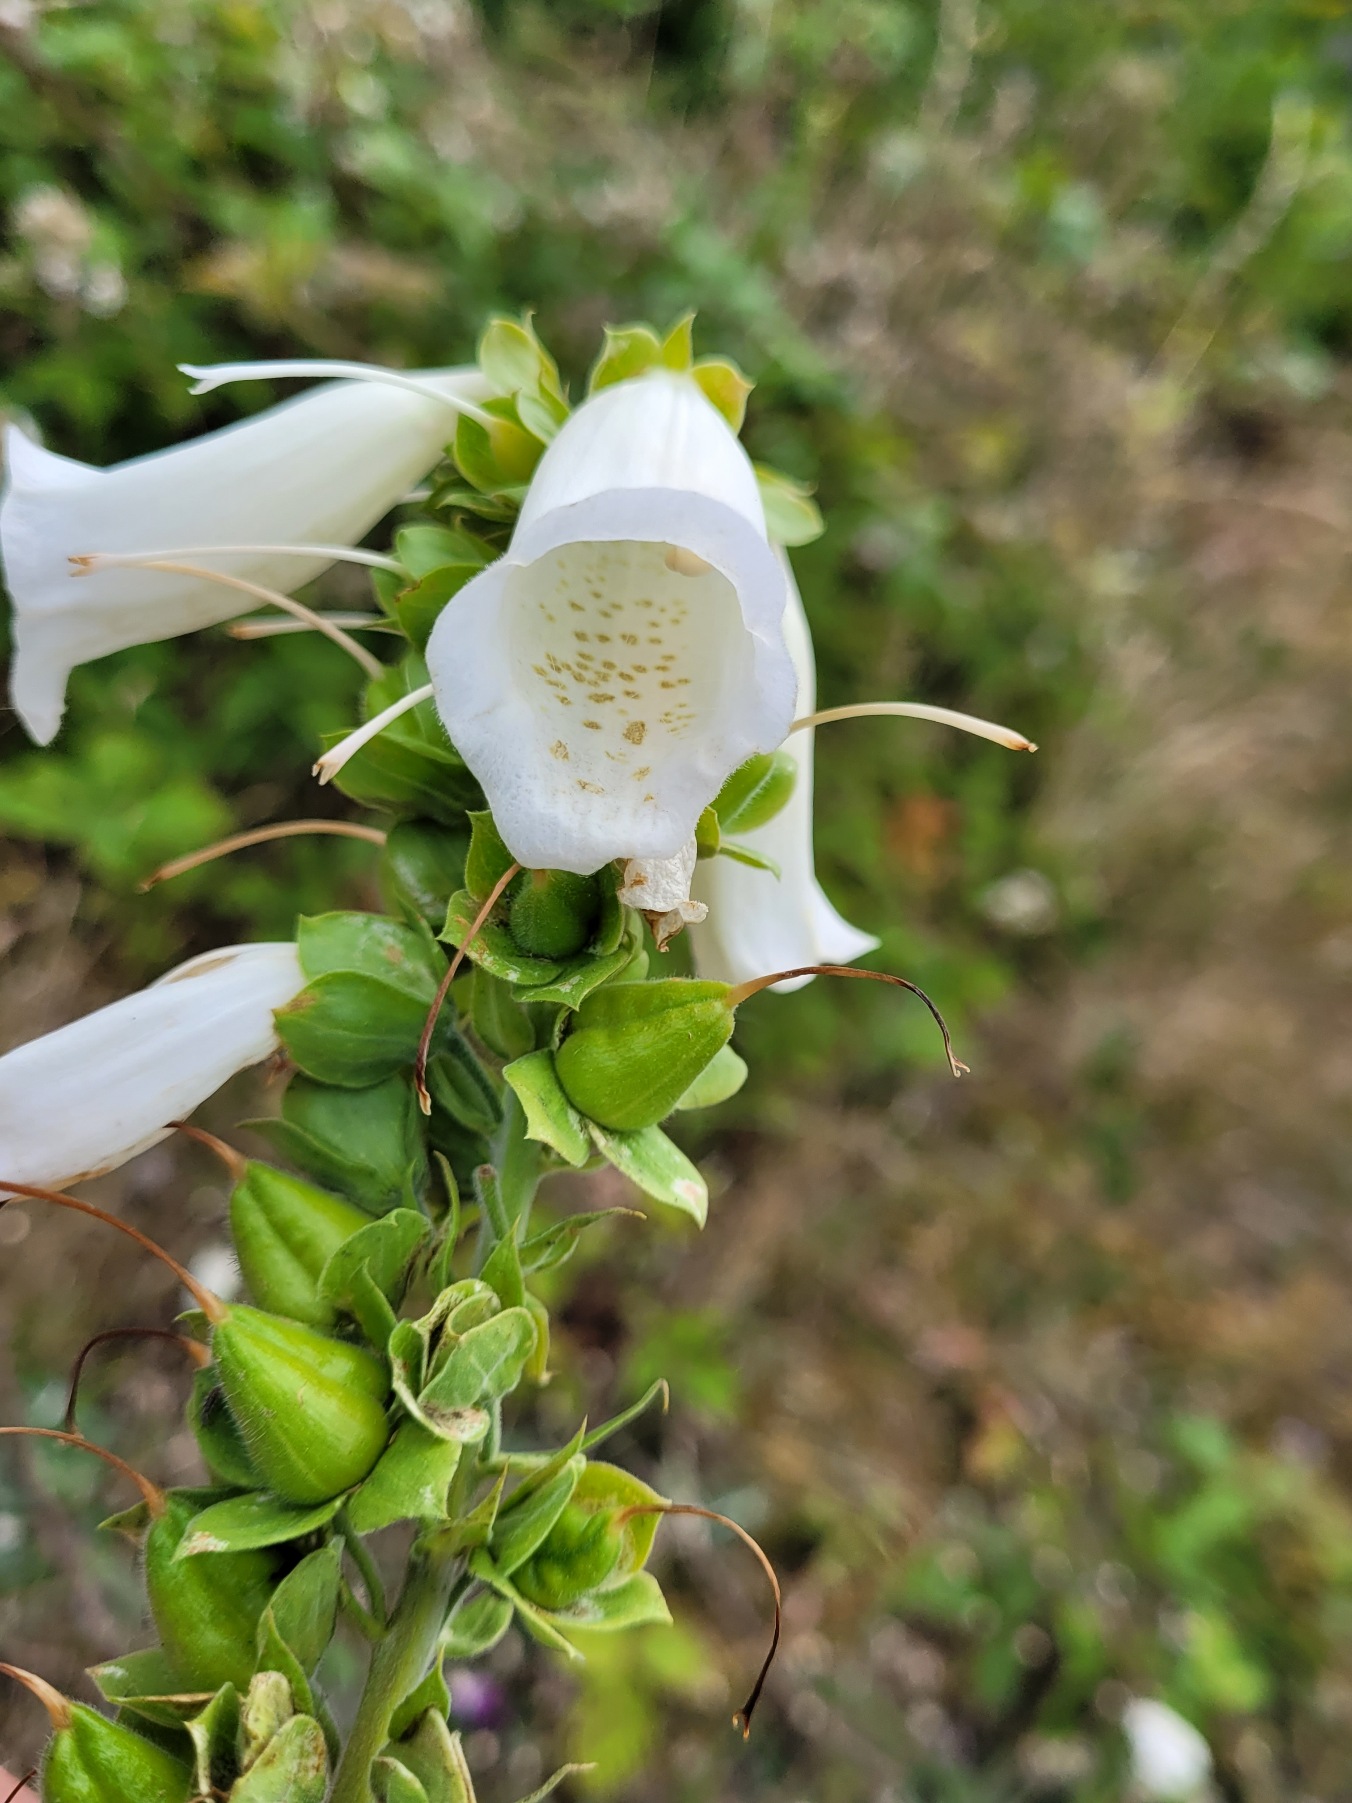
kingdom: Plantae
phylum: Tracheophyta
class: Magnoliopsida
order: Lamiales
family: Plantaginaceae
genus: Digitalis
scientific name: Digitalis purpurea
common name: Almindelig fingerbøl
